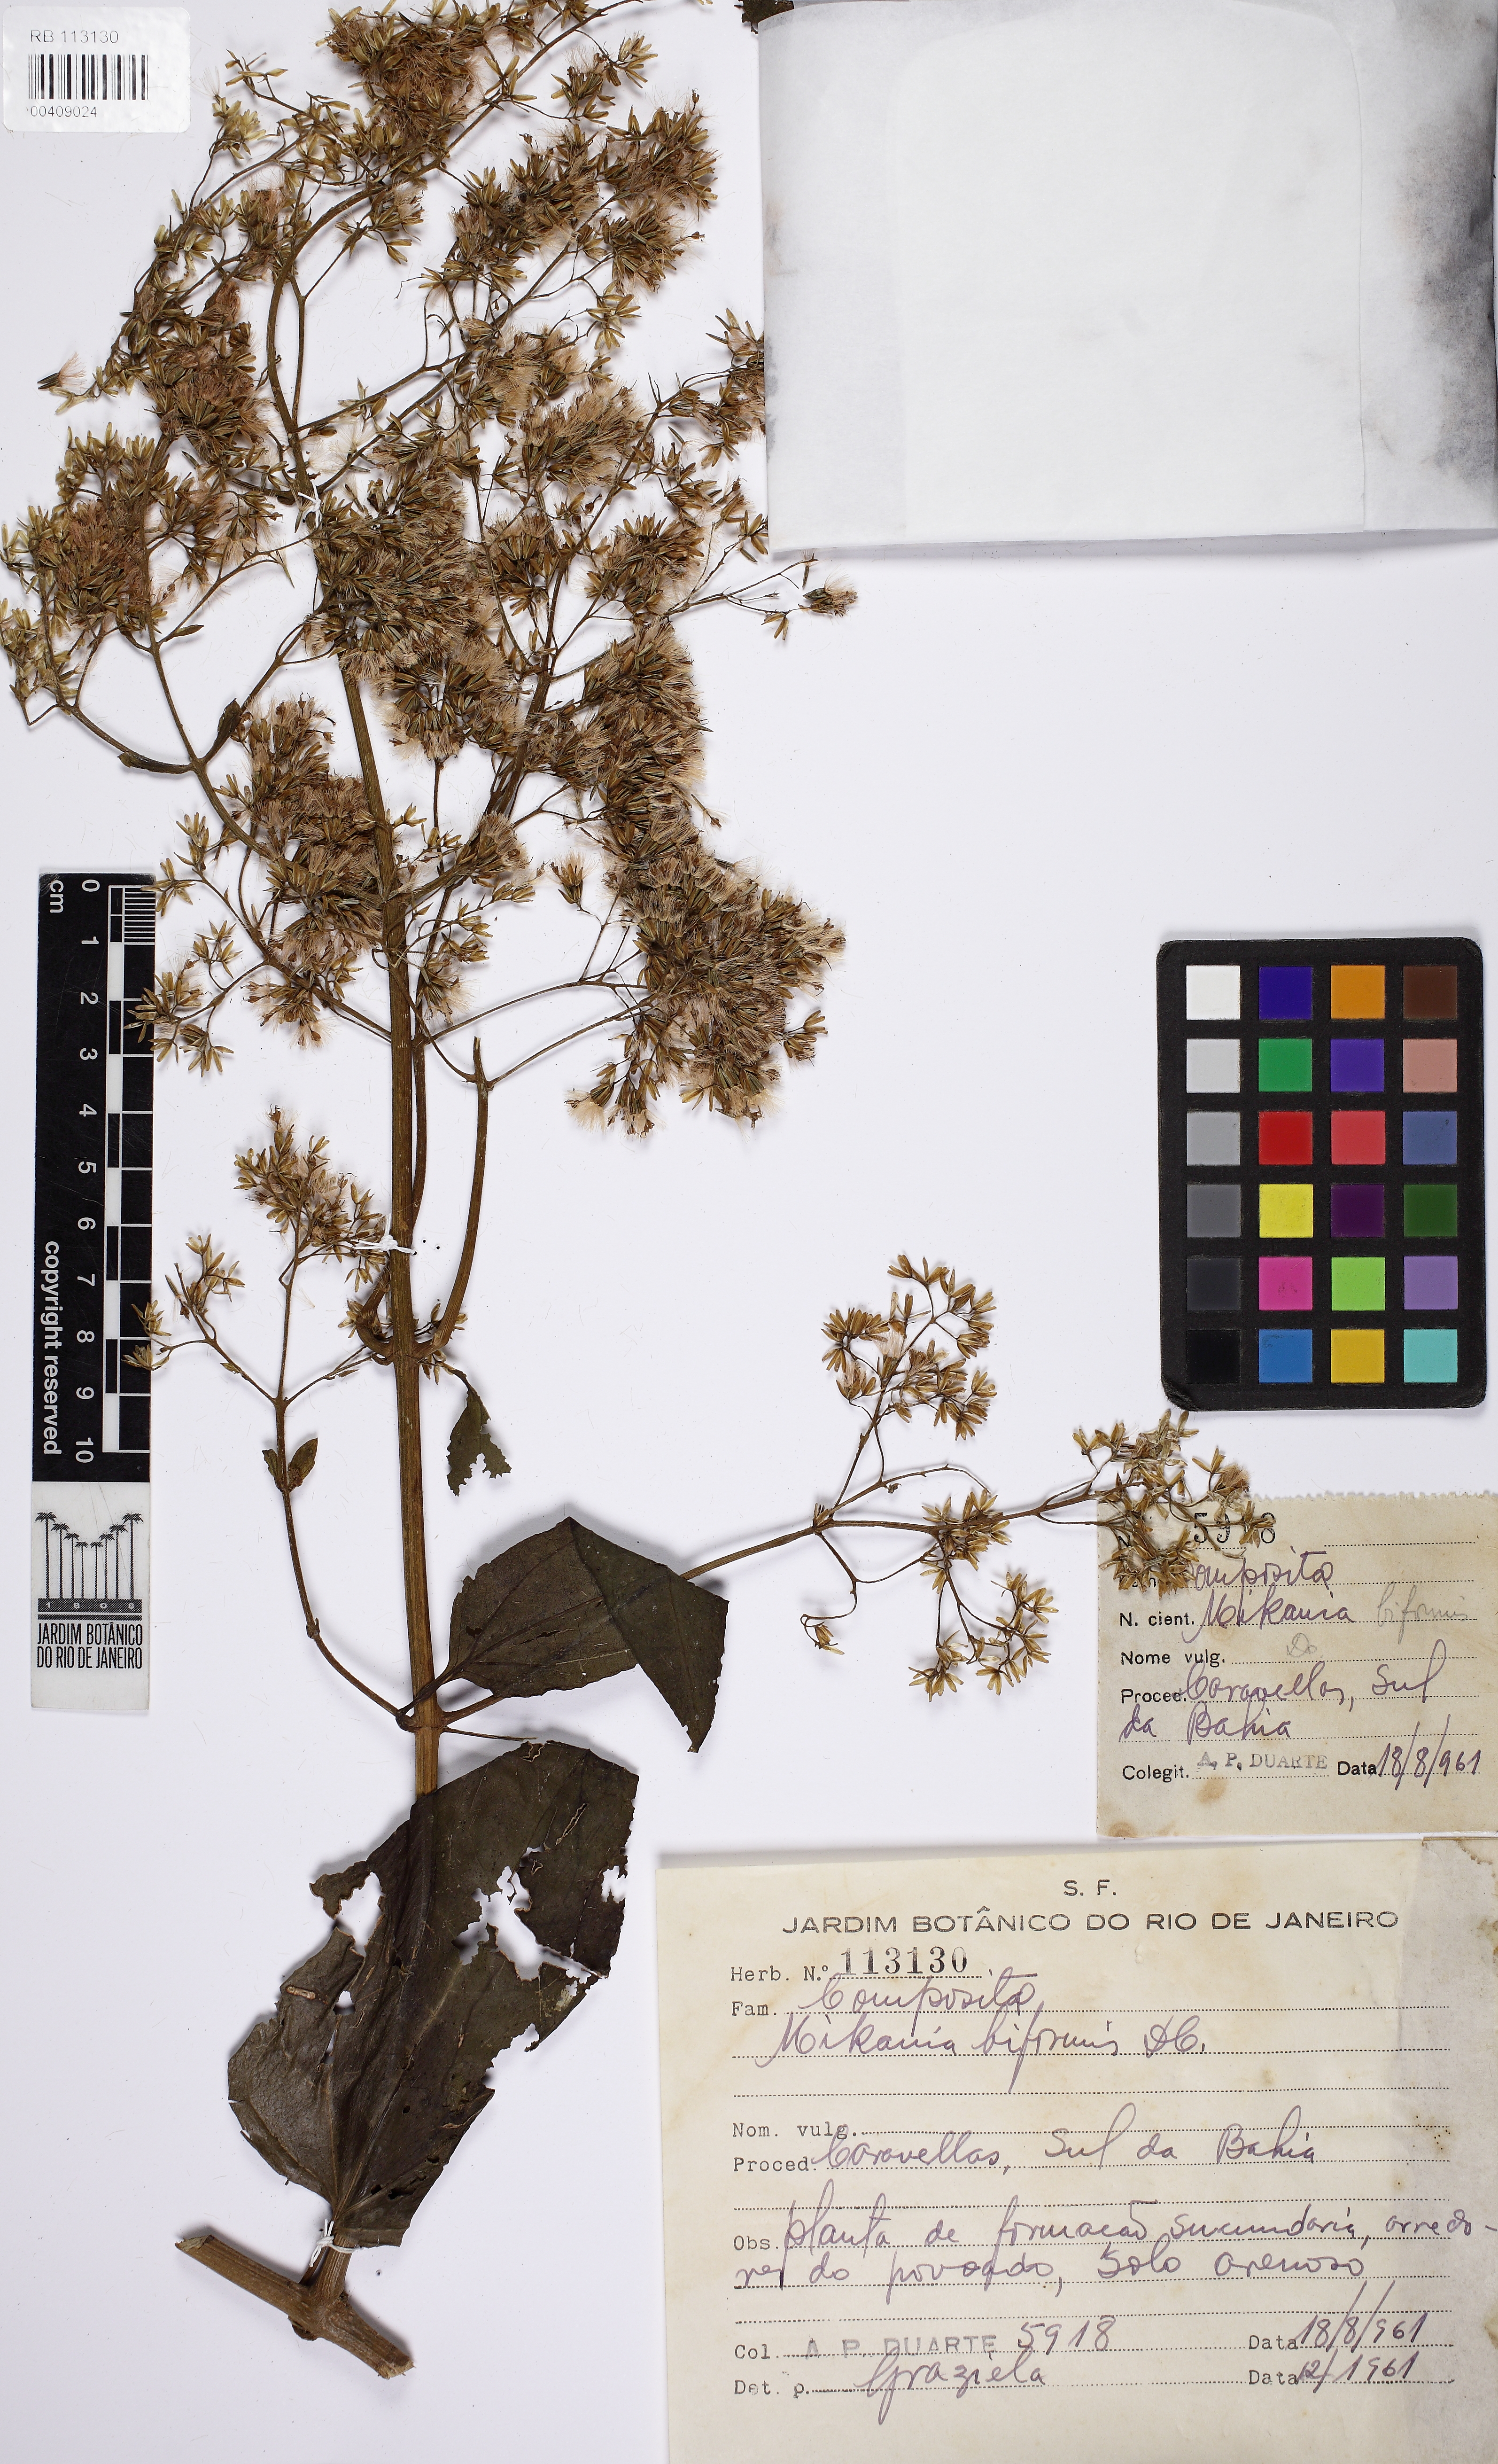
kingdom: Plantae
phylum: Tracheophyta
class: Magnoliopsida
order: Asterales
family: Asteraceae
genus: Mikania
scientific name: Mikania biformis
